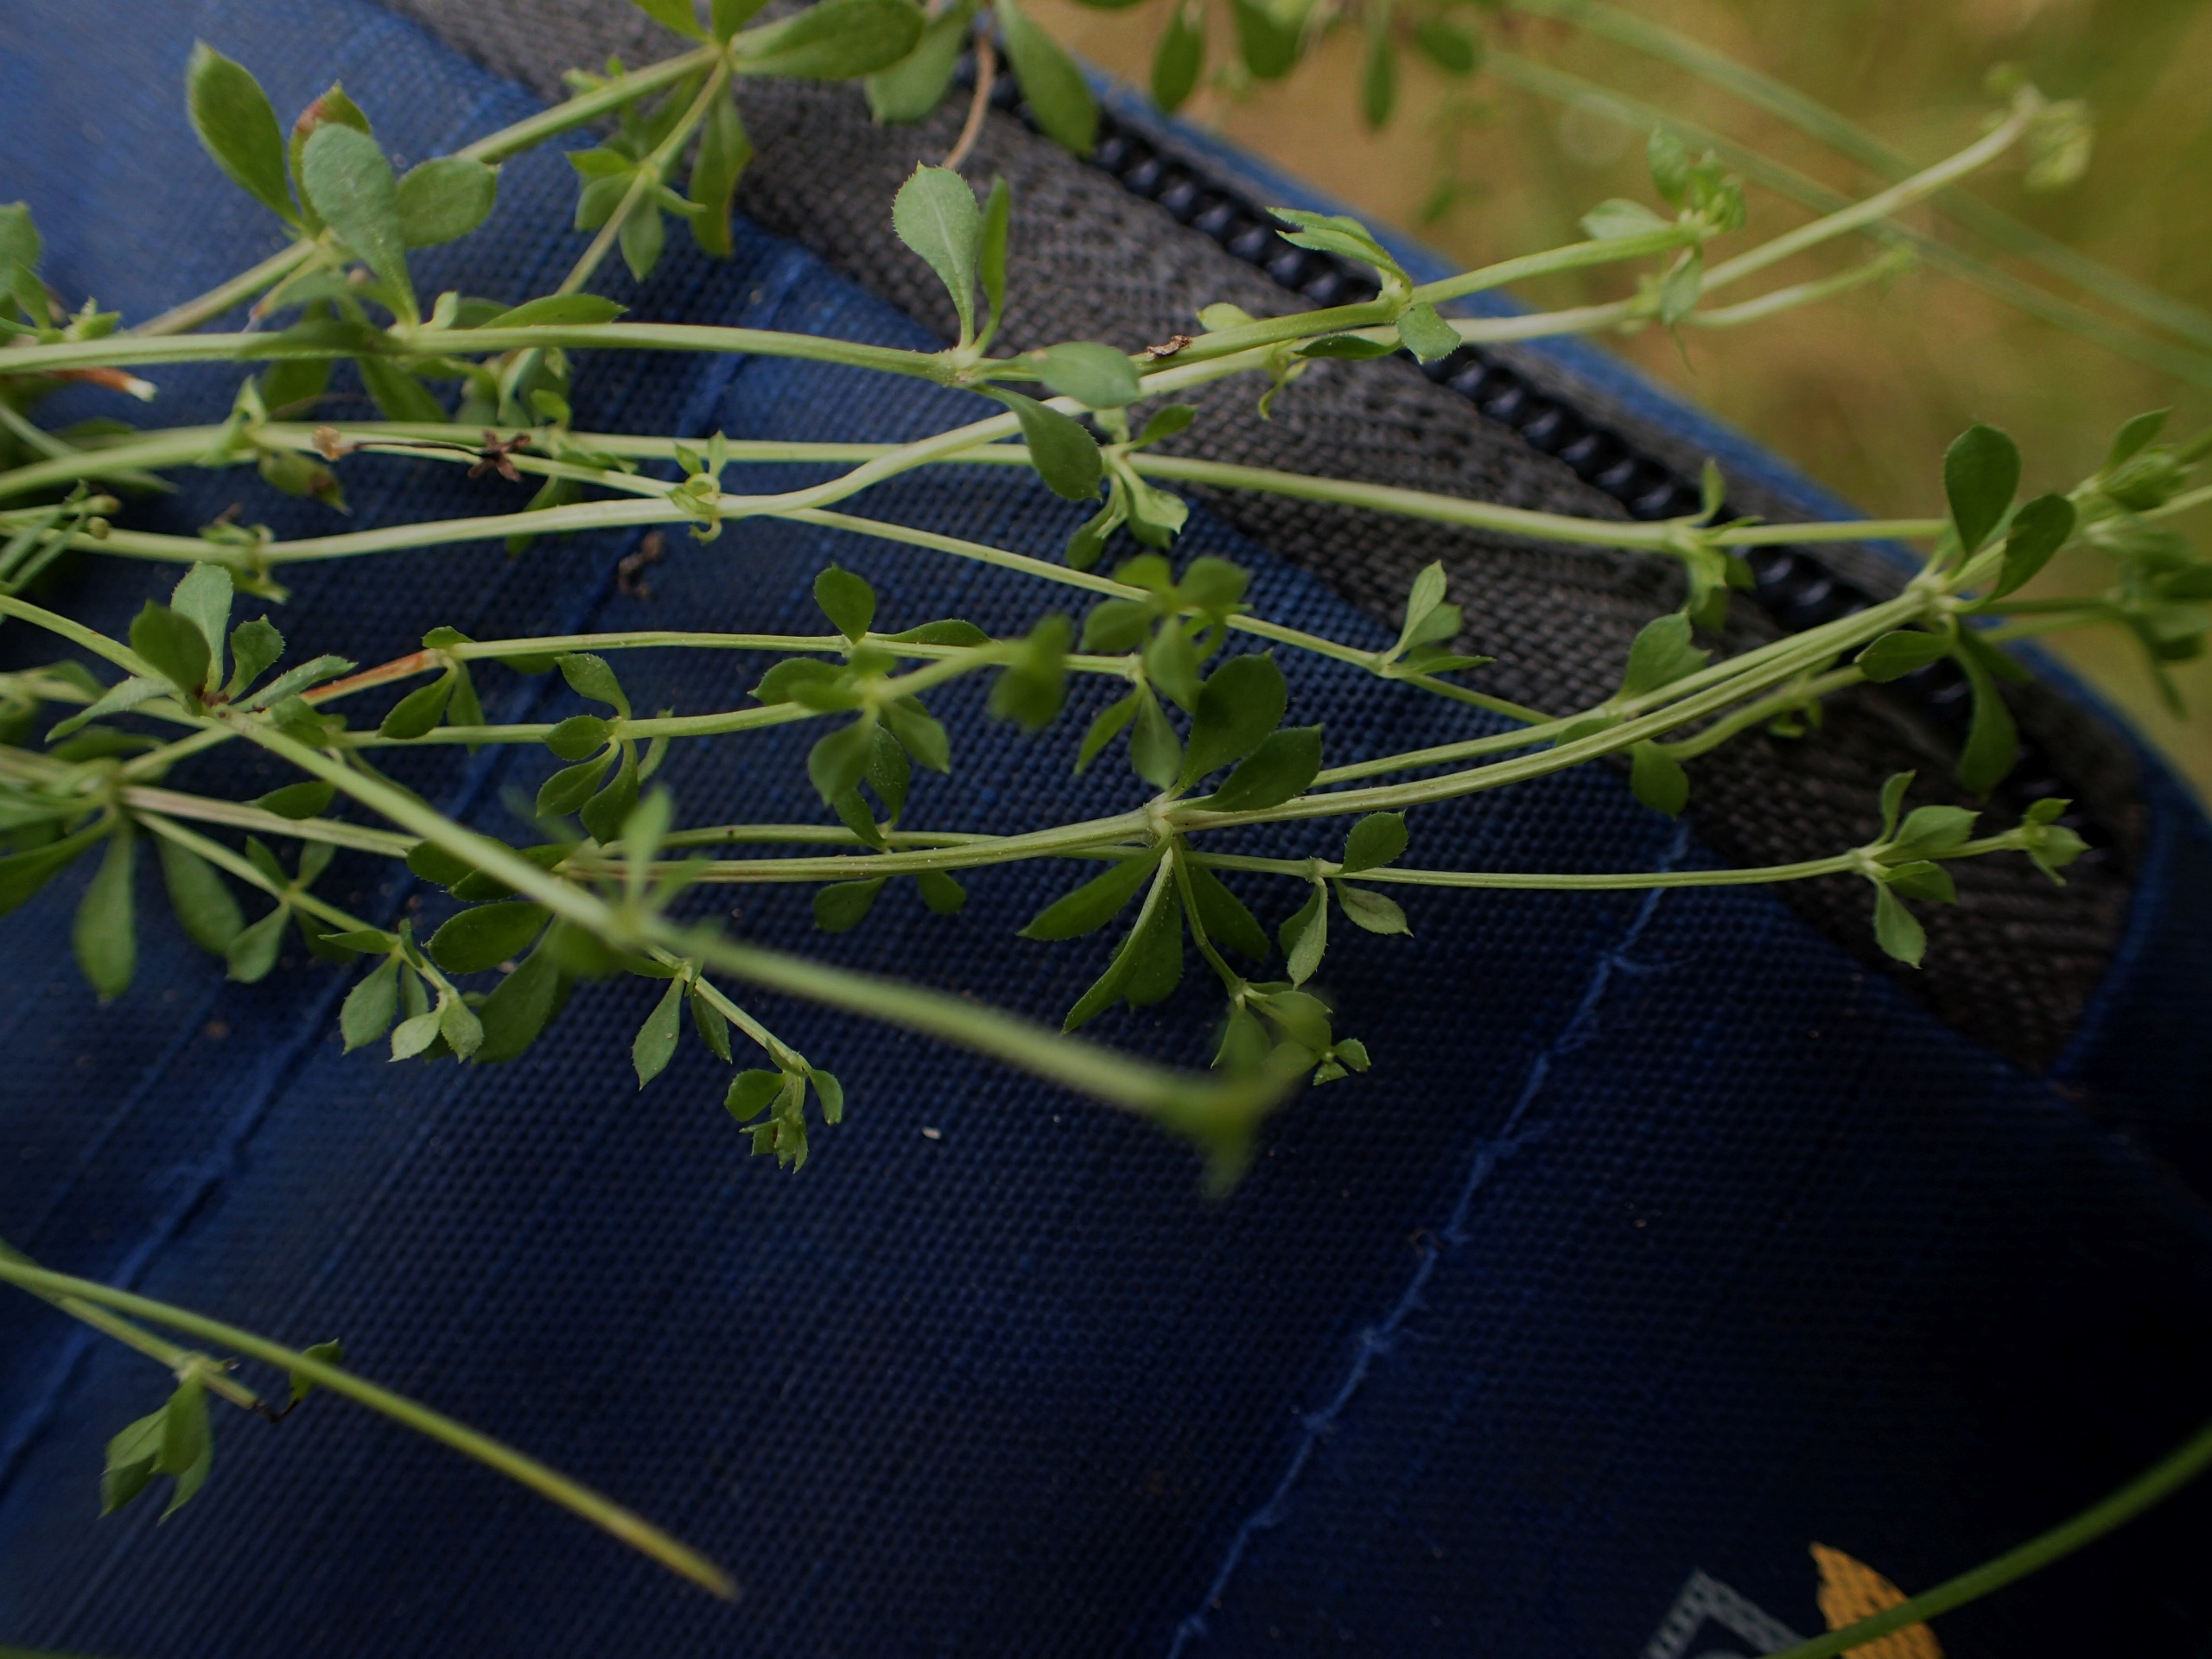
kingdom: Plantae
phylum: Tracheophyta
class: Magnoliopsida
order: Gentianales
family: Rubiaceae
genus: Galium
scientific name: Galium saxatile
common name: Lyng-snerre
